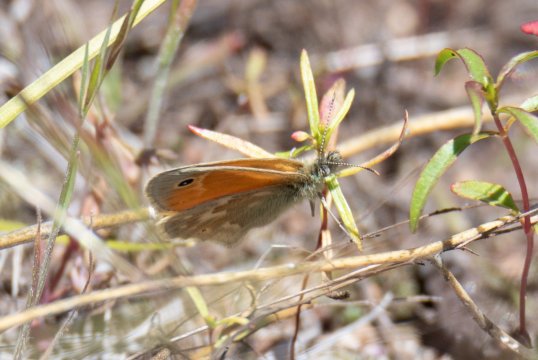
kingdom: Animalia
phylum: Arthropoda
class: Insecta
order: Lepidoptera
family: Nymphalidae
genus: Coenonympha
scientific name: Coenonympha california
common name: California Ringlet
